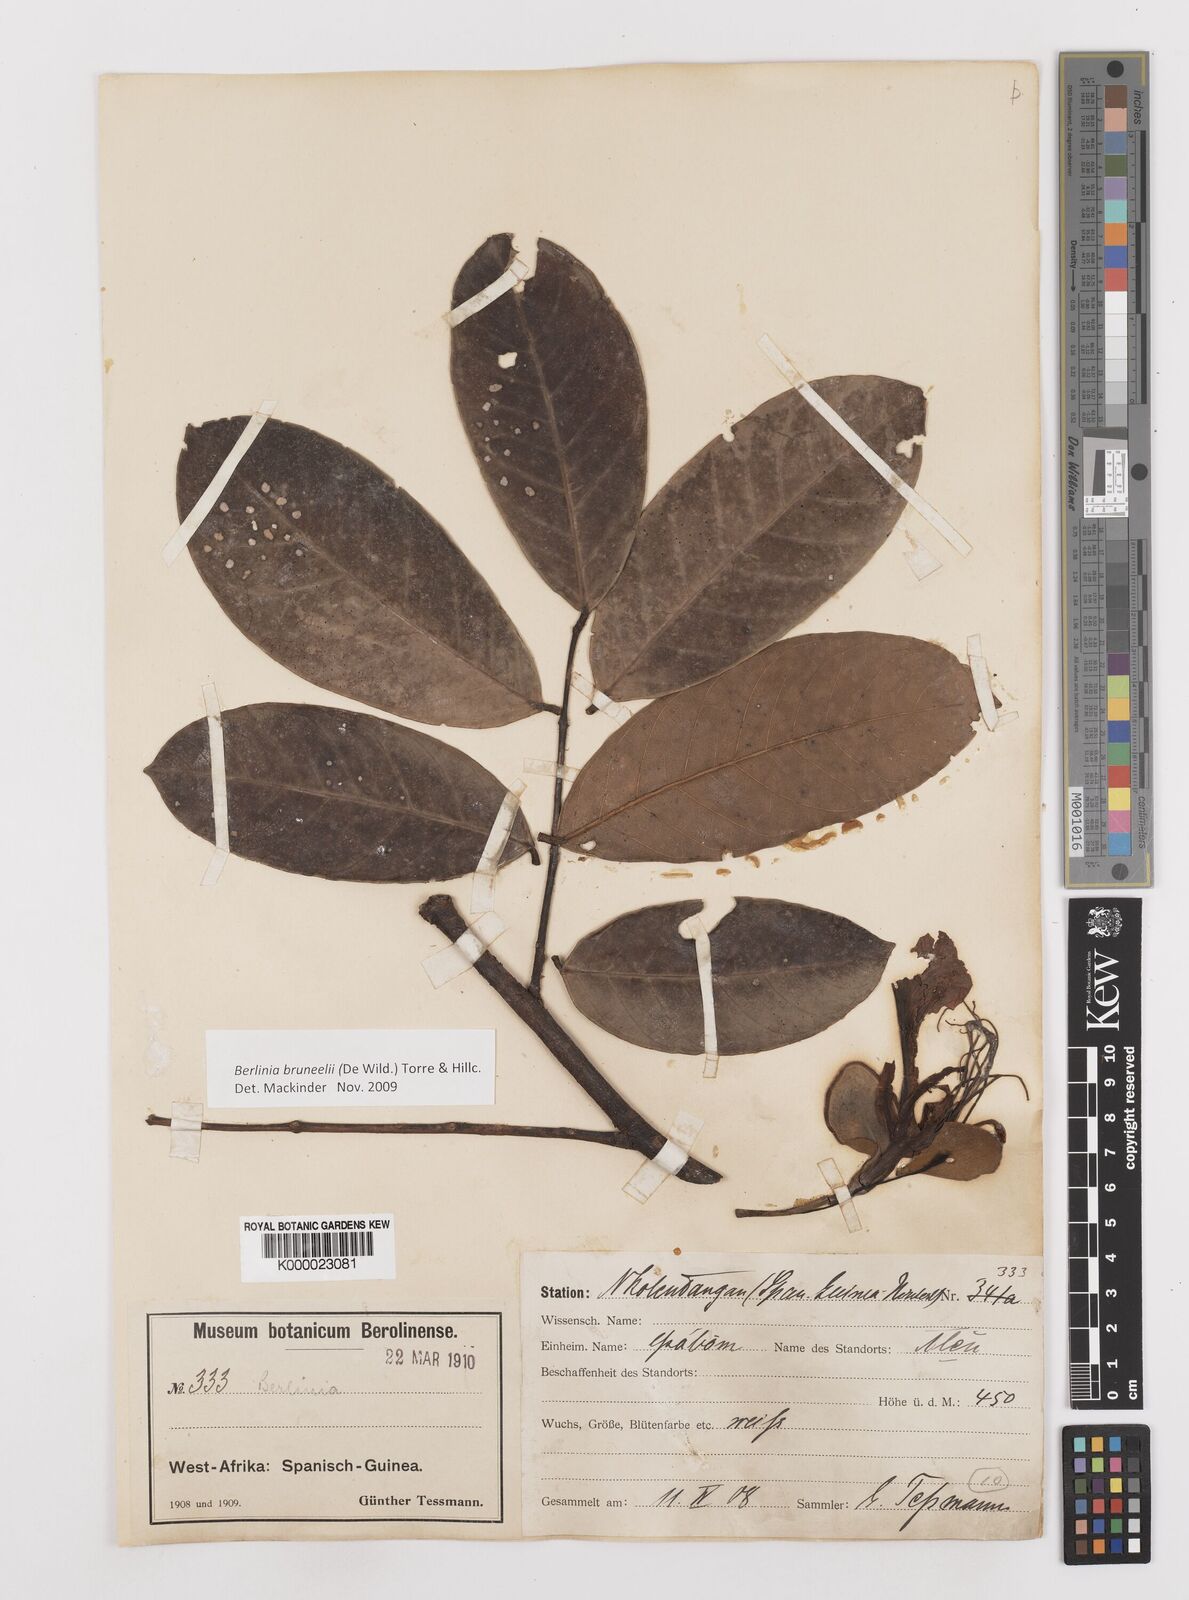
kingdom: Plantae
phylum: Tracheophyta
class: Magnoliopsida
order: Fabales
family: Fabaceae
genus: Berlinia
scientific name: Berlinia bruneelii
